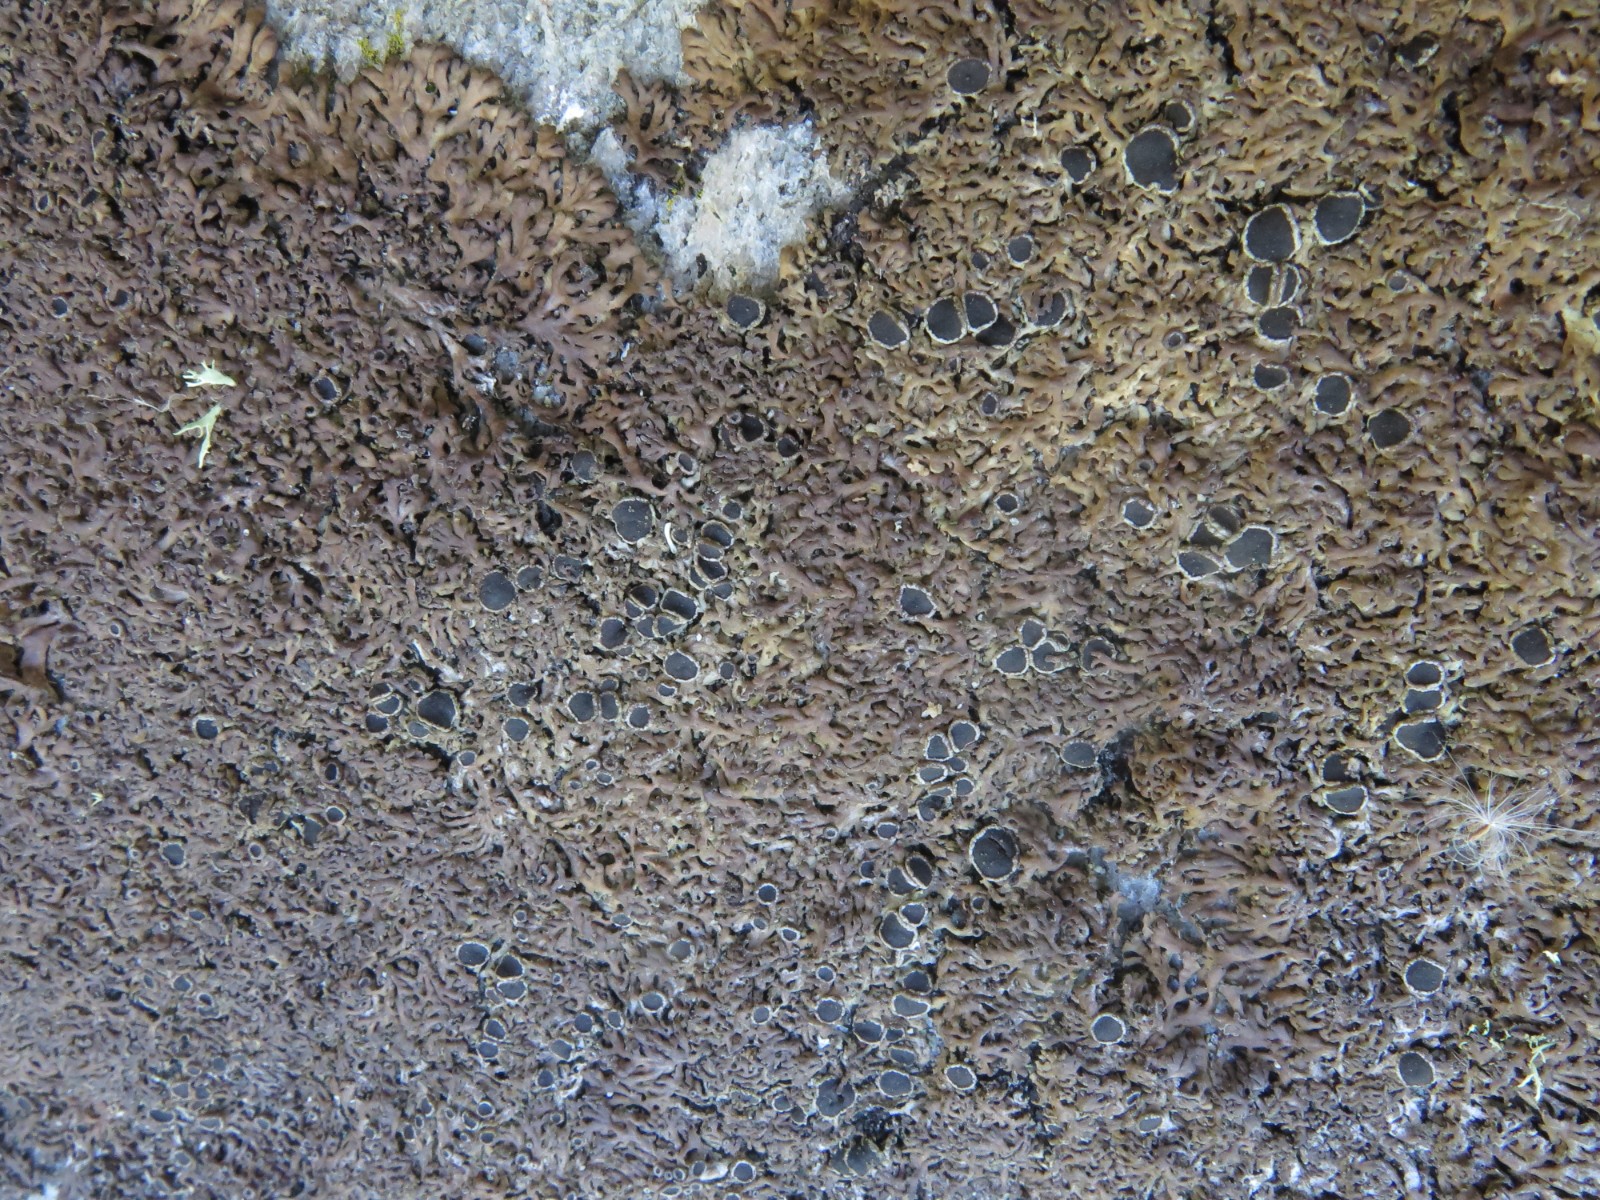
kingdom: Fungi
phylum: Ascomycota
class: Lecanoromycetes
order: Caliciales
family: Physciaceae
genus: Kurokawia
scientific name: Kurokawia runcinata
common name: brun frynselav
